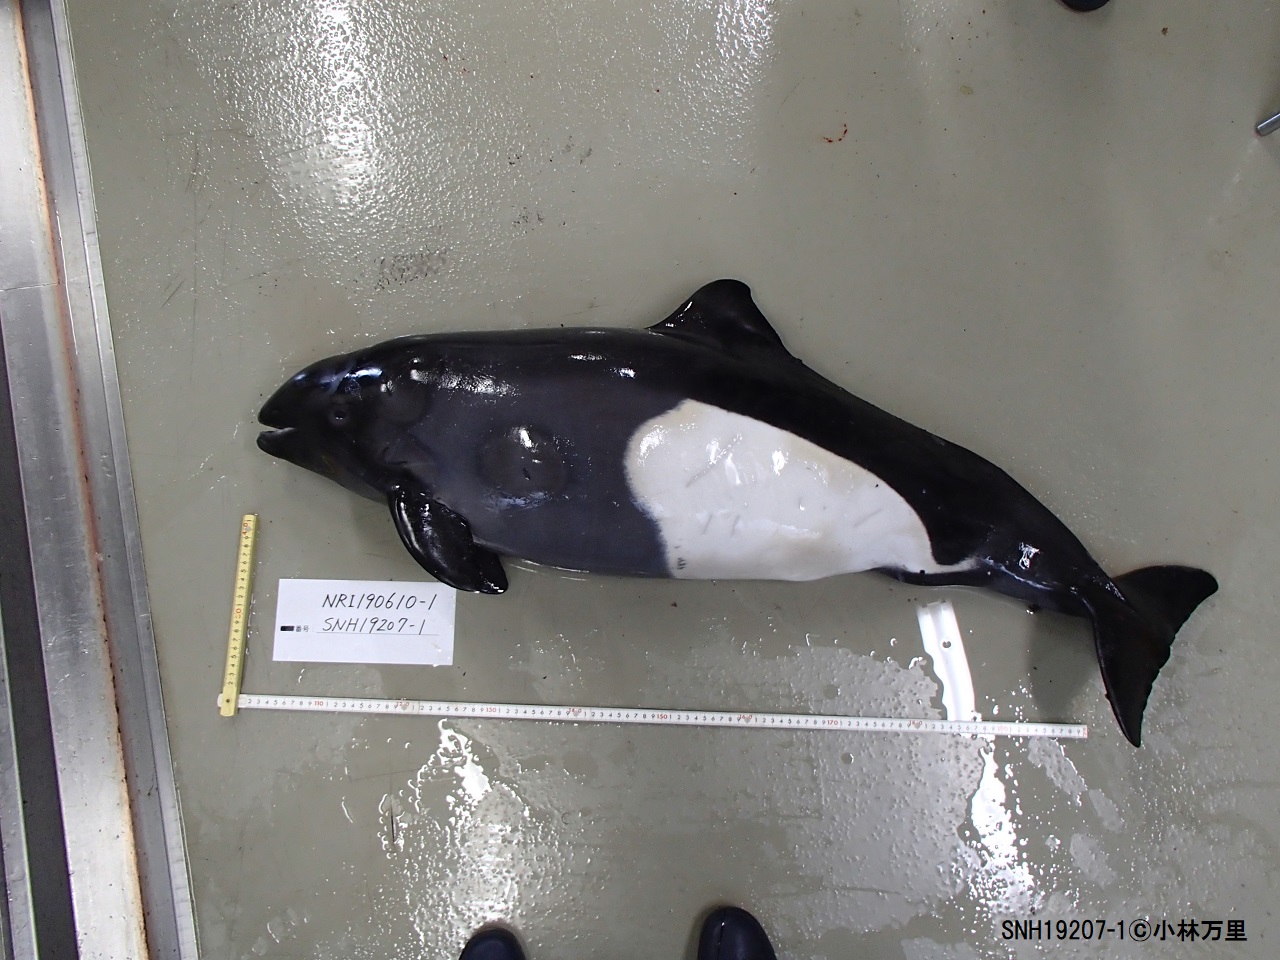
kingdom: Animalia
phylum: Chordata
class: Mammalia
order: Cetacea
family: Phocoenidae
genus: Phocoenoides
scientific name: Phocoenoides dalli
